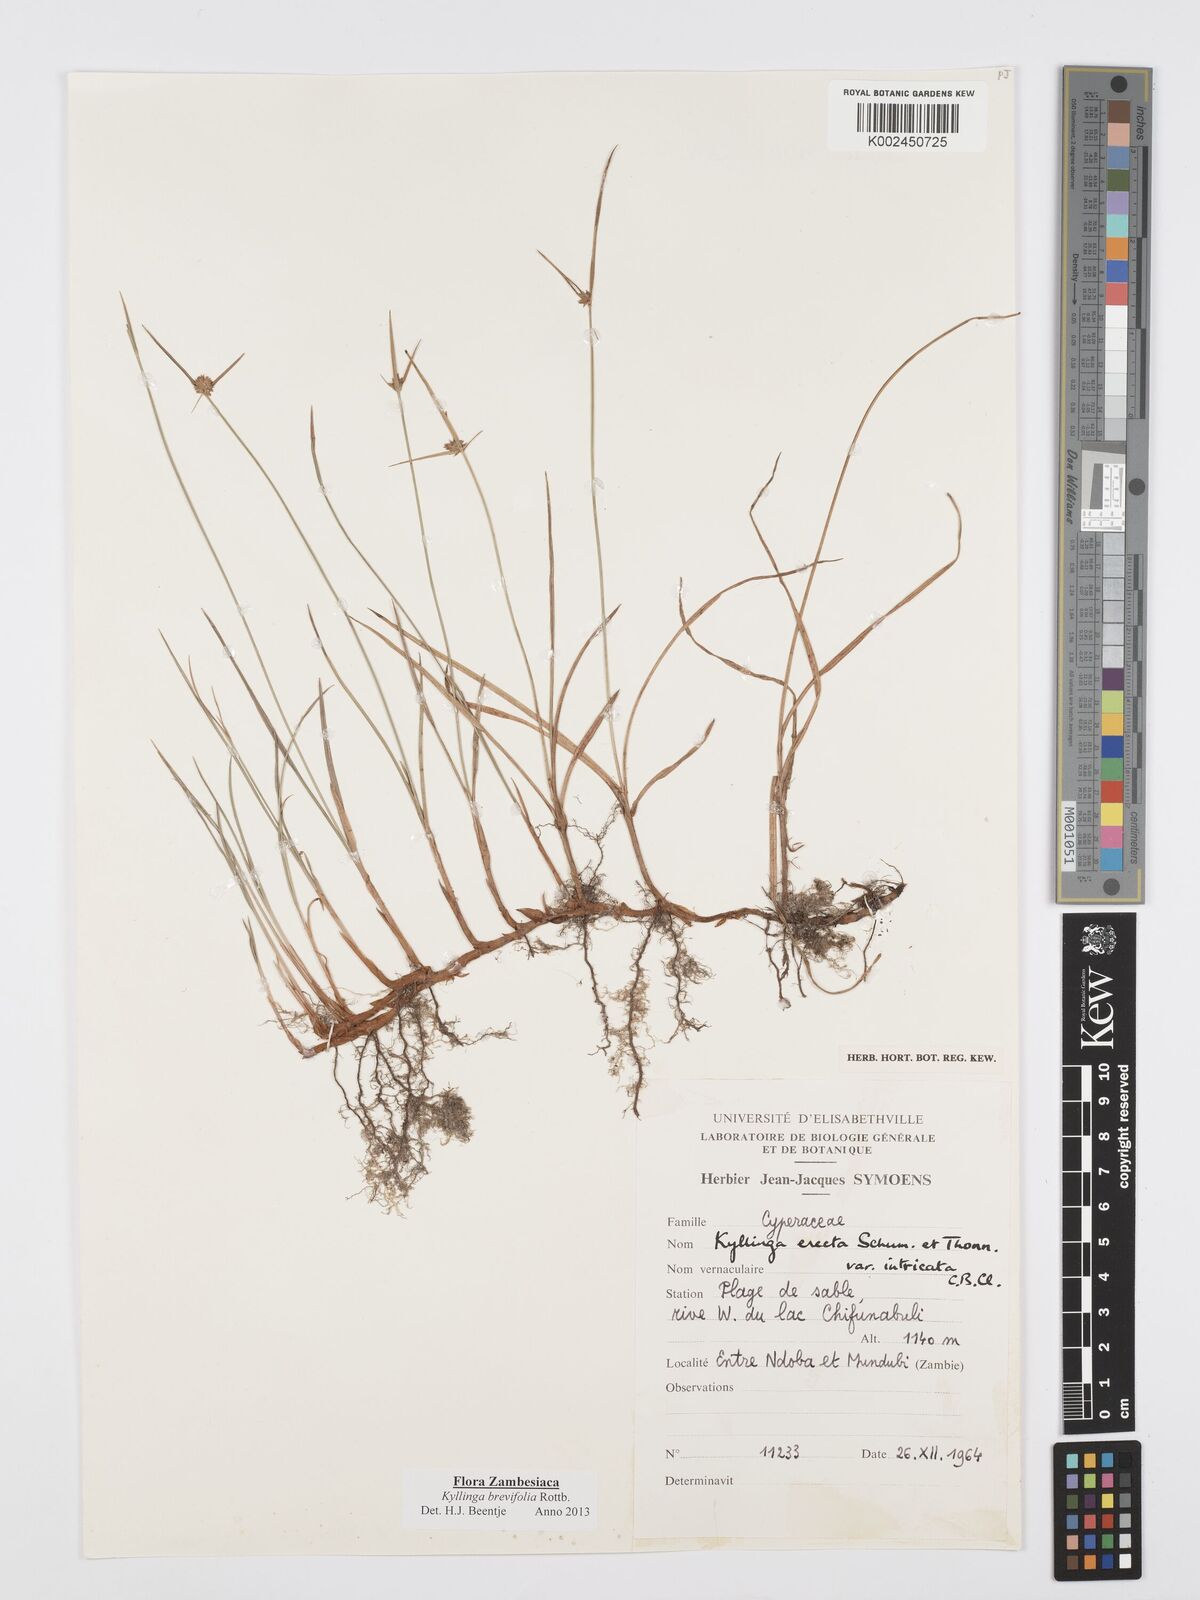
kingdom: Plantae
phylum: Tracheophyta
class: Liliopsida
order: Poales
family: Cyperaceae
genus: Cyperus
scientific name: Cyperus brevifolius
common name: Globe kyllinga
